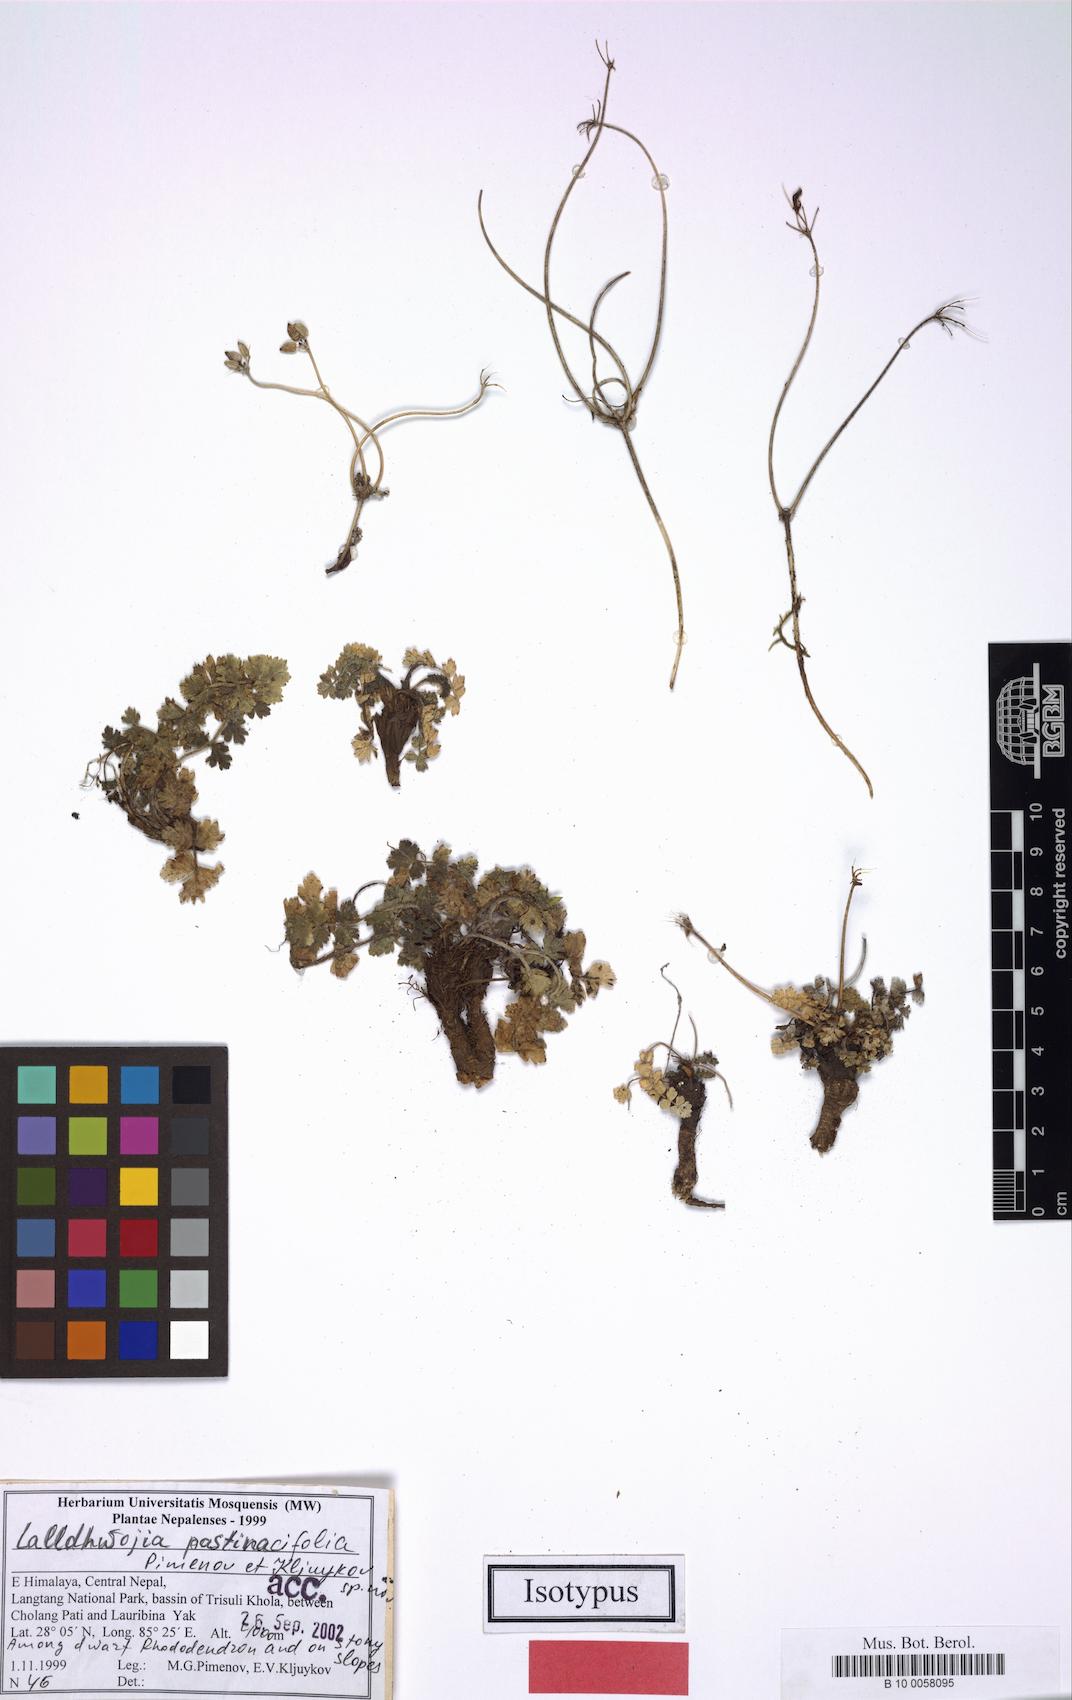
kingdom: Plantae
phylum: Tracheophyta
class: Magnoliopsida
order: Apiales
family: Apiaceae
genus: Lalldhwojia
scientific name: Lalldhwojia pastinacifolia
